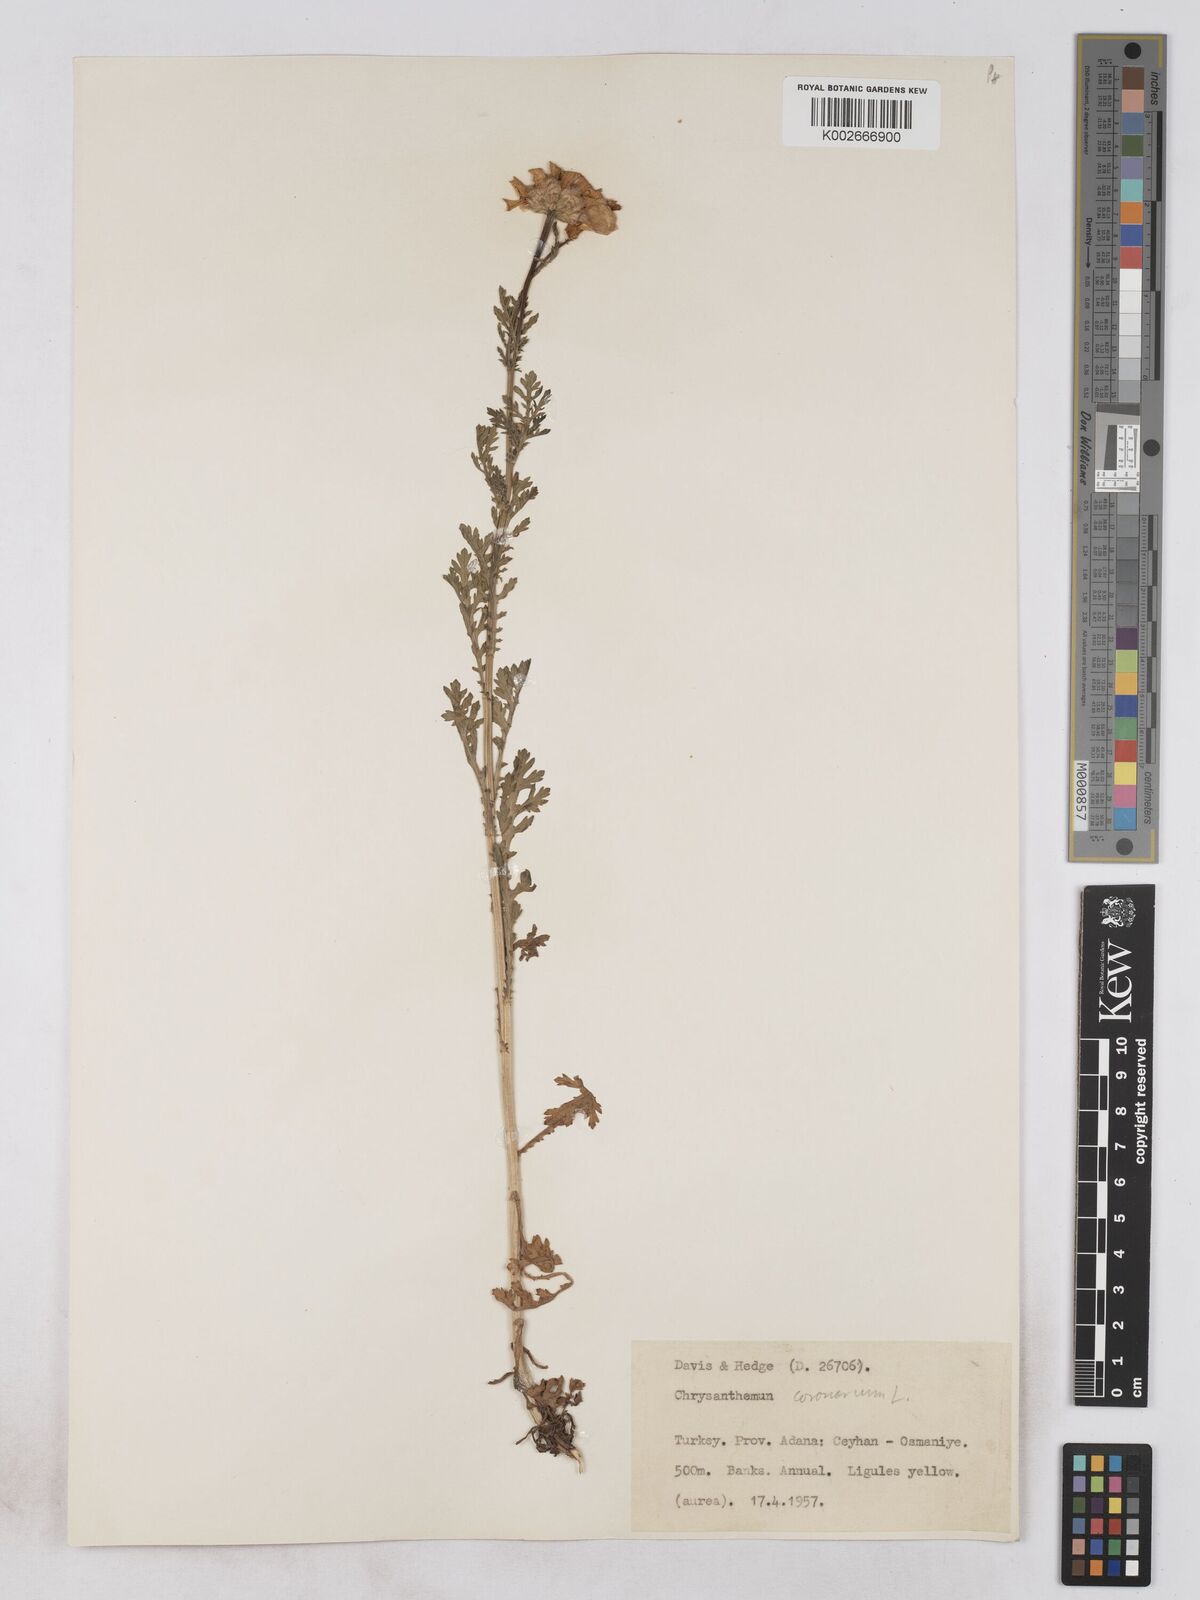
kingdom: Plantae
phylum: Tracheophyta
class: Magnoliopsida
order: Asterales
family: Asteraceae
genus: Glebionis
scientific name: Glebionis coronaria
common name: Crowndaisy
